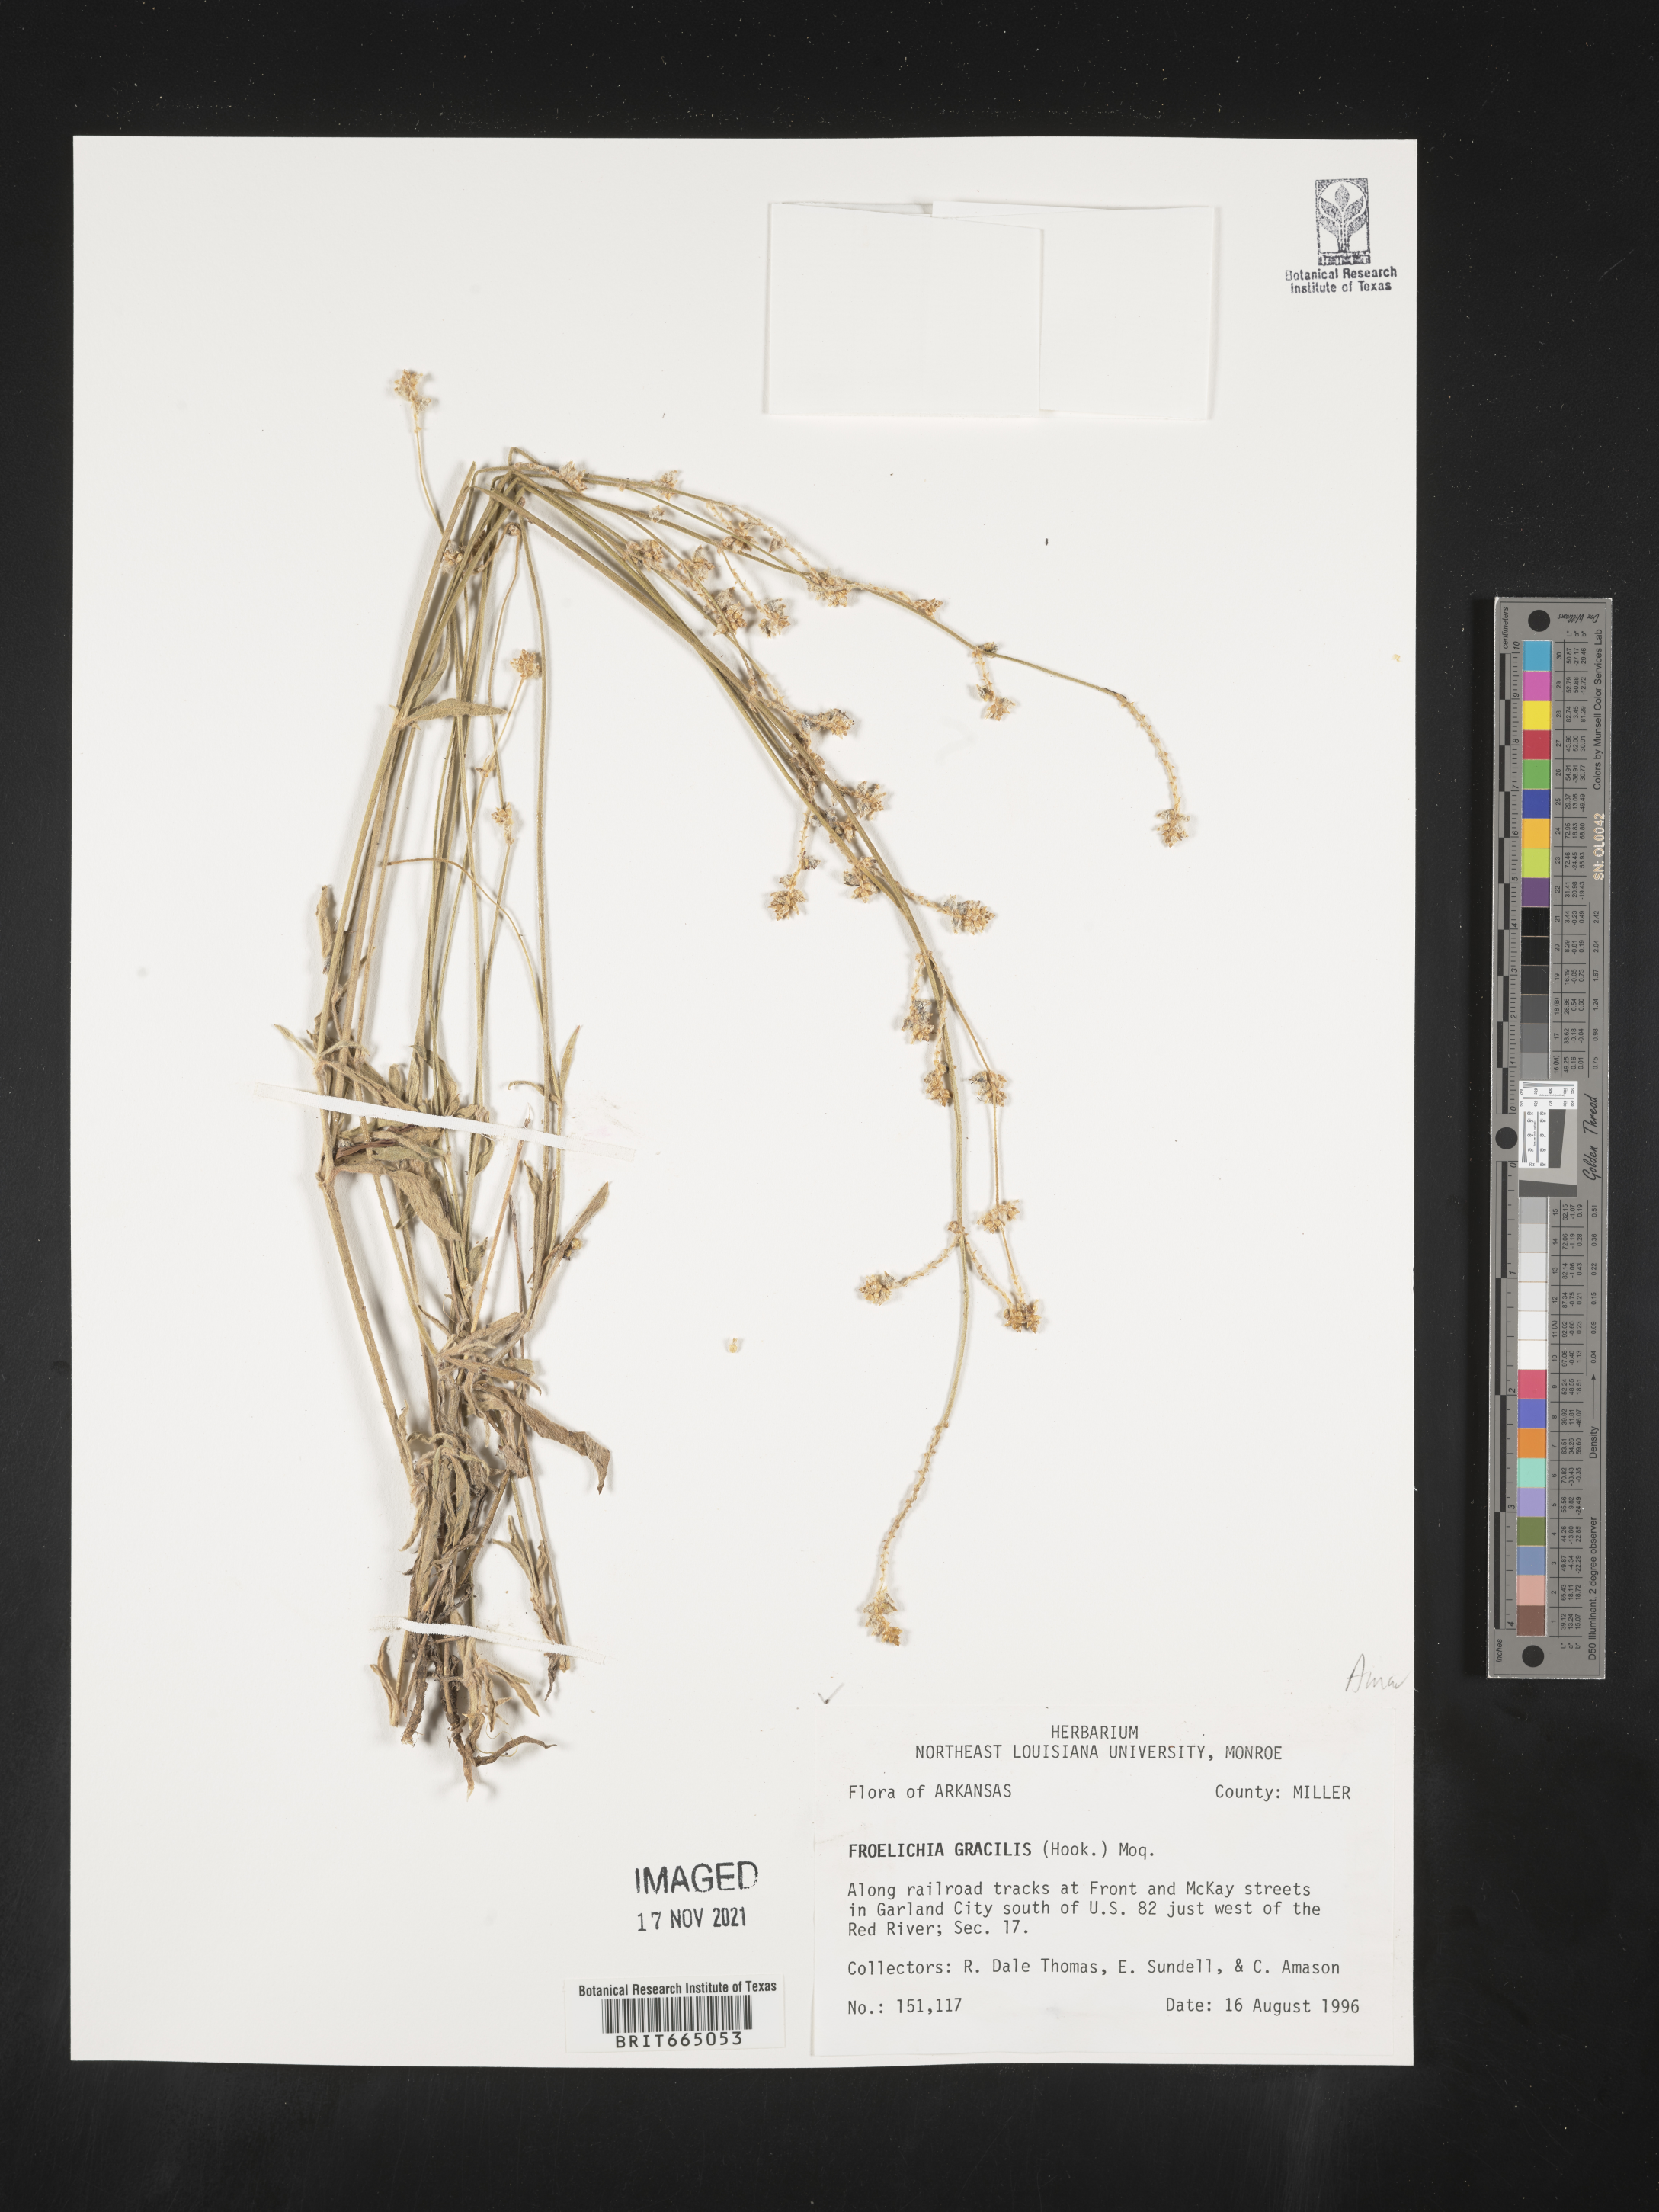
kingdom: Plantae
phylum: Tracheophyta
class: Magnoliopsida
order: Caryophyllales
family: Amaranthaceae
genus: Froelichia
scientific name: Froelichia gracilis
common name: Slender cottonweed
